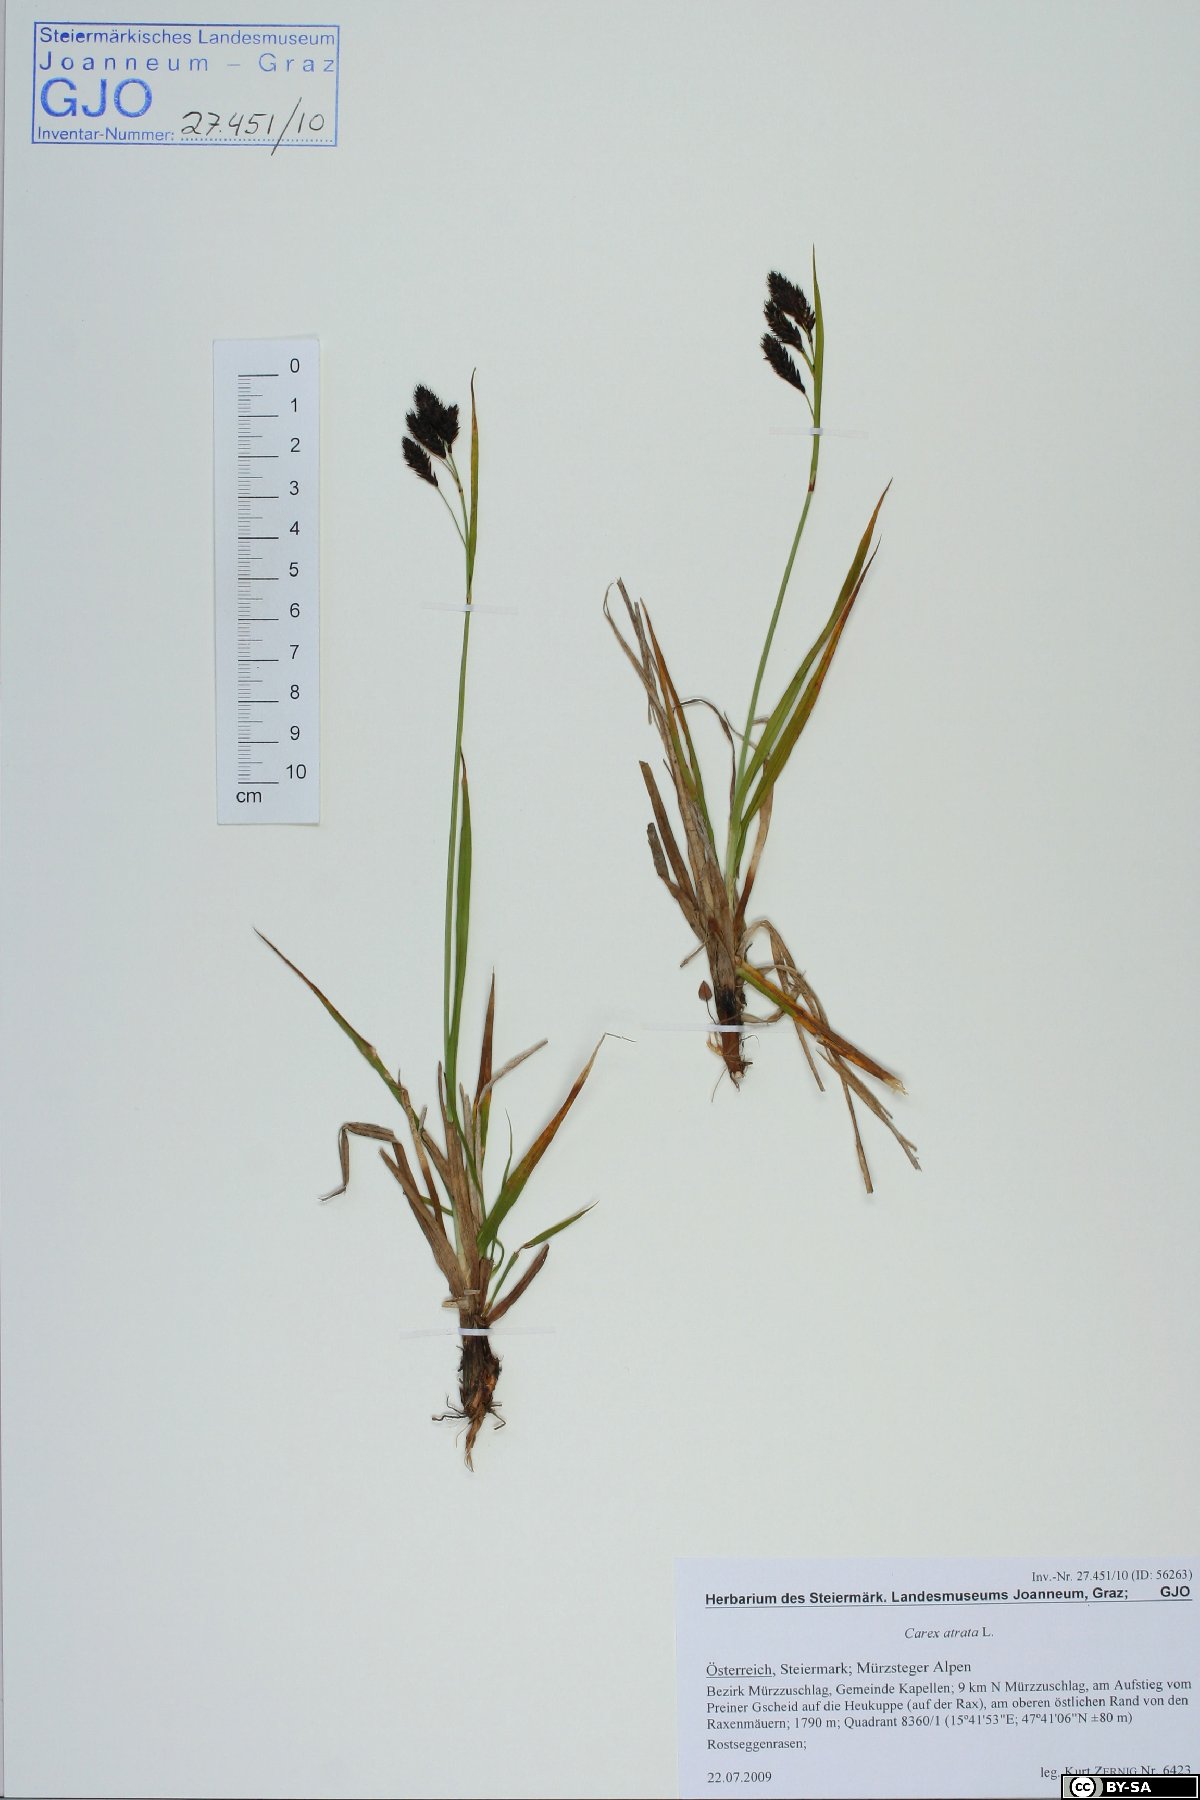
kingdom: Plantae
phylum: Tracheophyta
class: Liliopsida
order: Poales
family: Cyperaceae
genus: Carex
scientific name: Carex atrata
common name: Black alpine sedge
